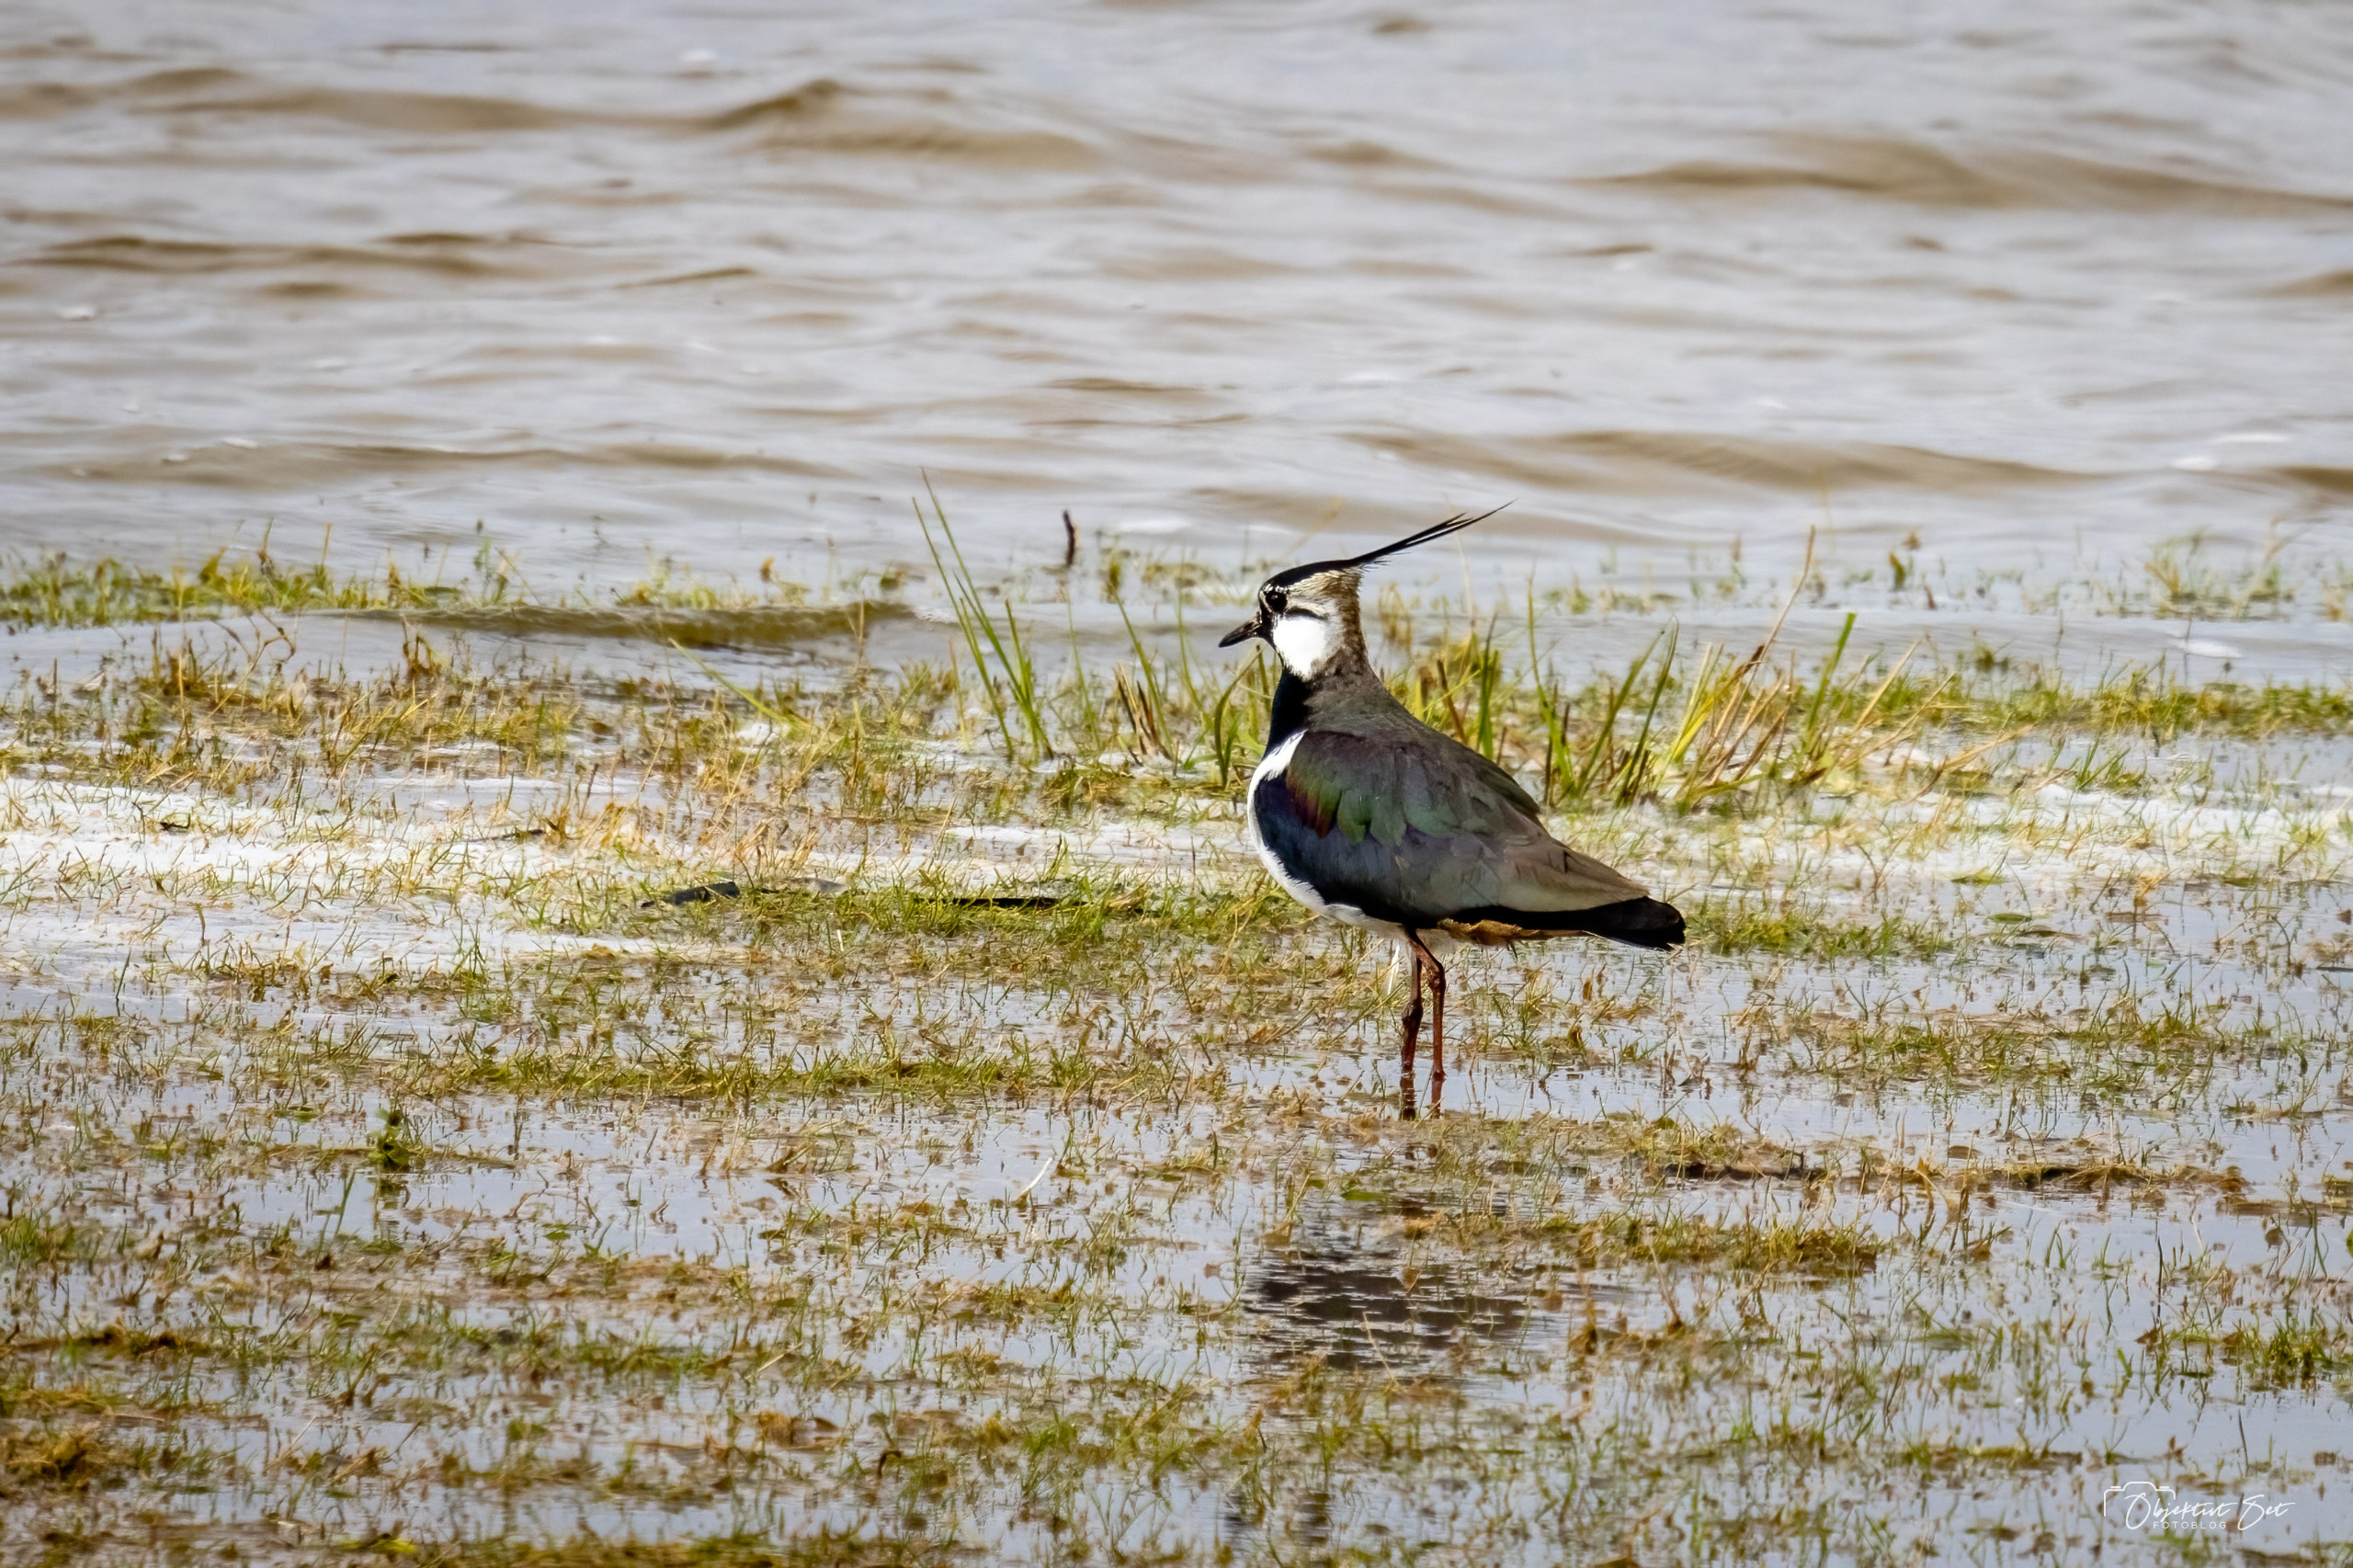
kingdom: Animalia
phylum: Chordata
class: Aves
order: Charadriiformes
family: Charadriidae
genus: Vanellus
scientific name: Vanellus vanellus
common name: Vibe
